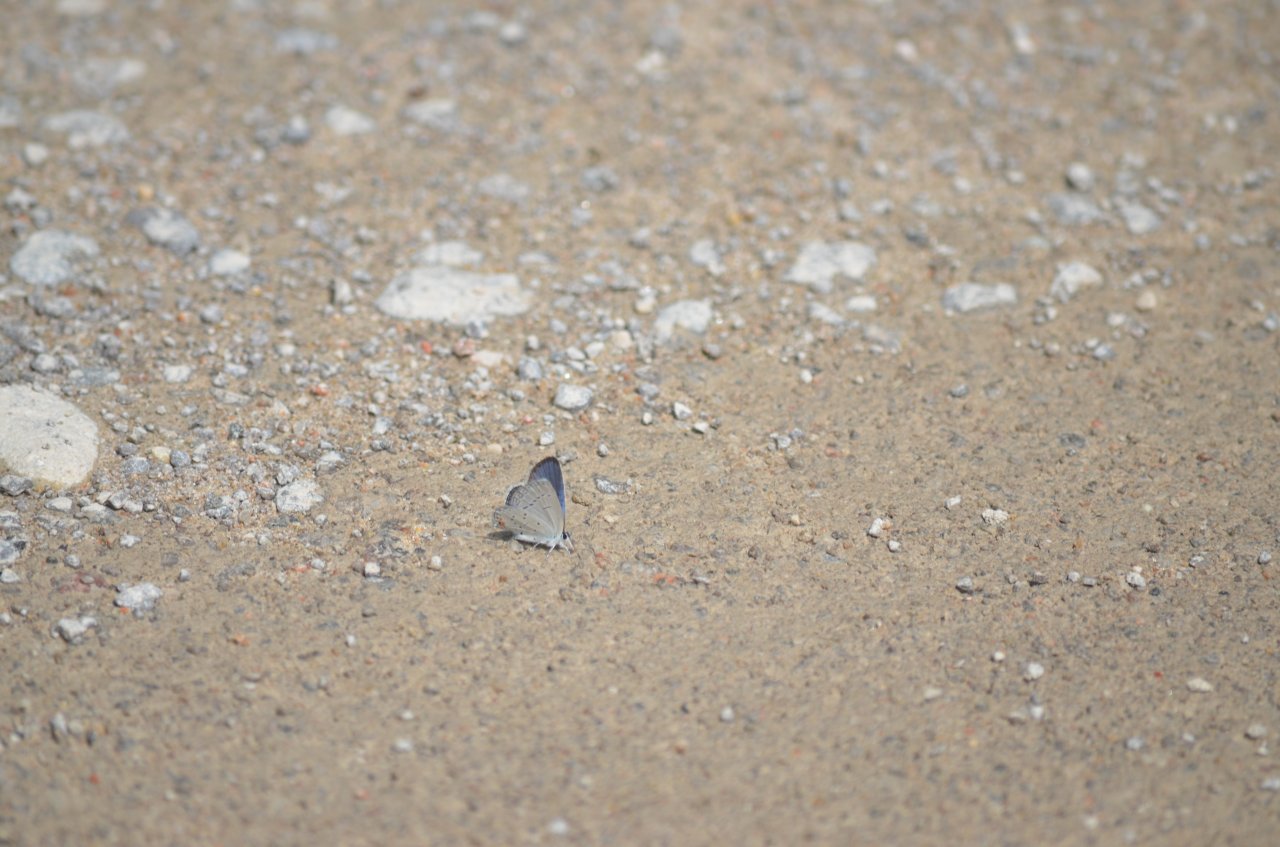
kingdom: Animalia
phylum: Arthropoda
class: Insecta
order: Lepidoptera
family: Lycaenidae
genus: Elkalyce
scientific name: Elkalyce comyntas
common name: Eastern Tailed-Blue
